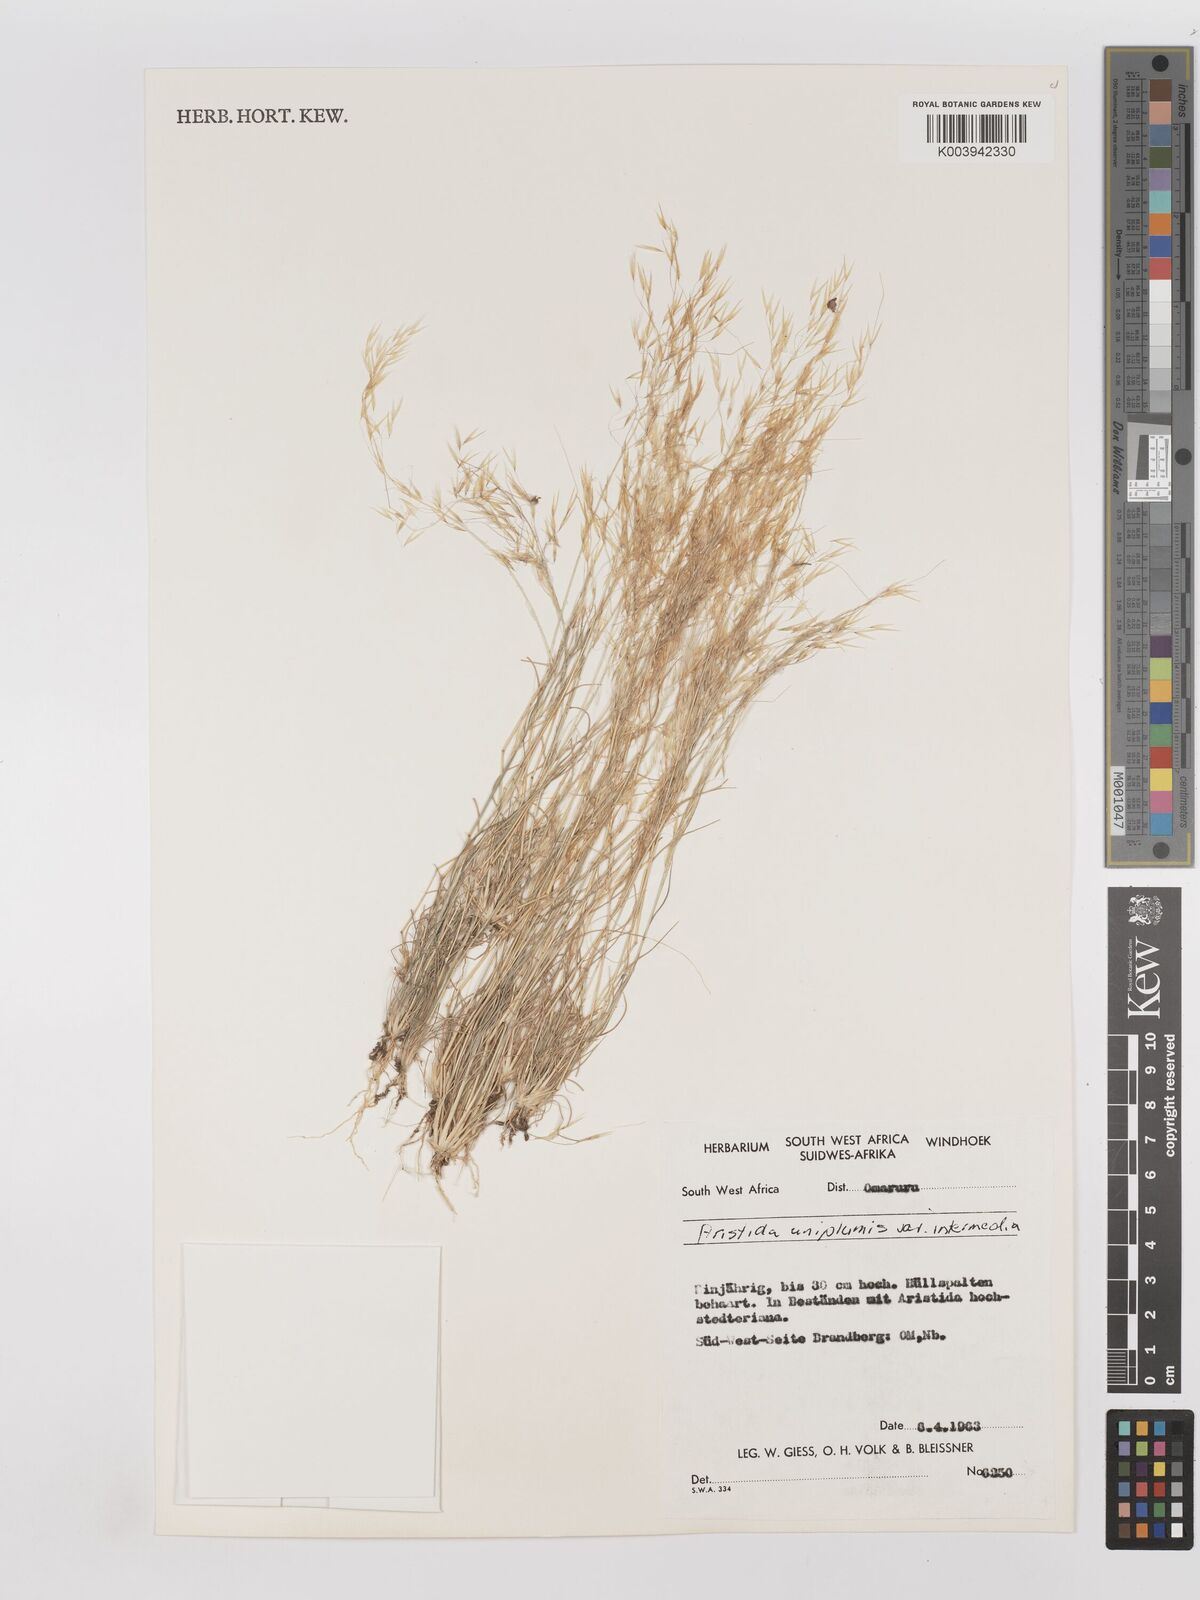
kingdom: Plantae
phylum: Tracheophyta
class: Liliopsida
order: Poales
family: Poaceae
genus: Stipagrostis
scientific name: Stipagrostis uniplumis
